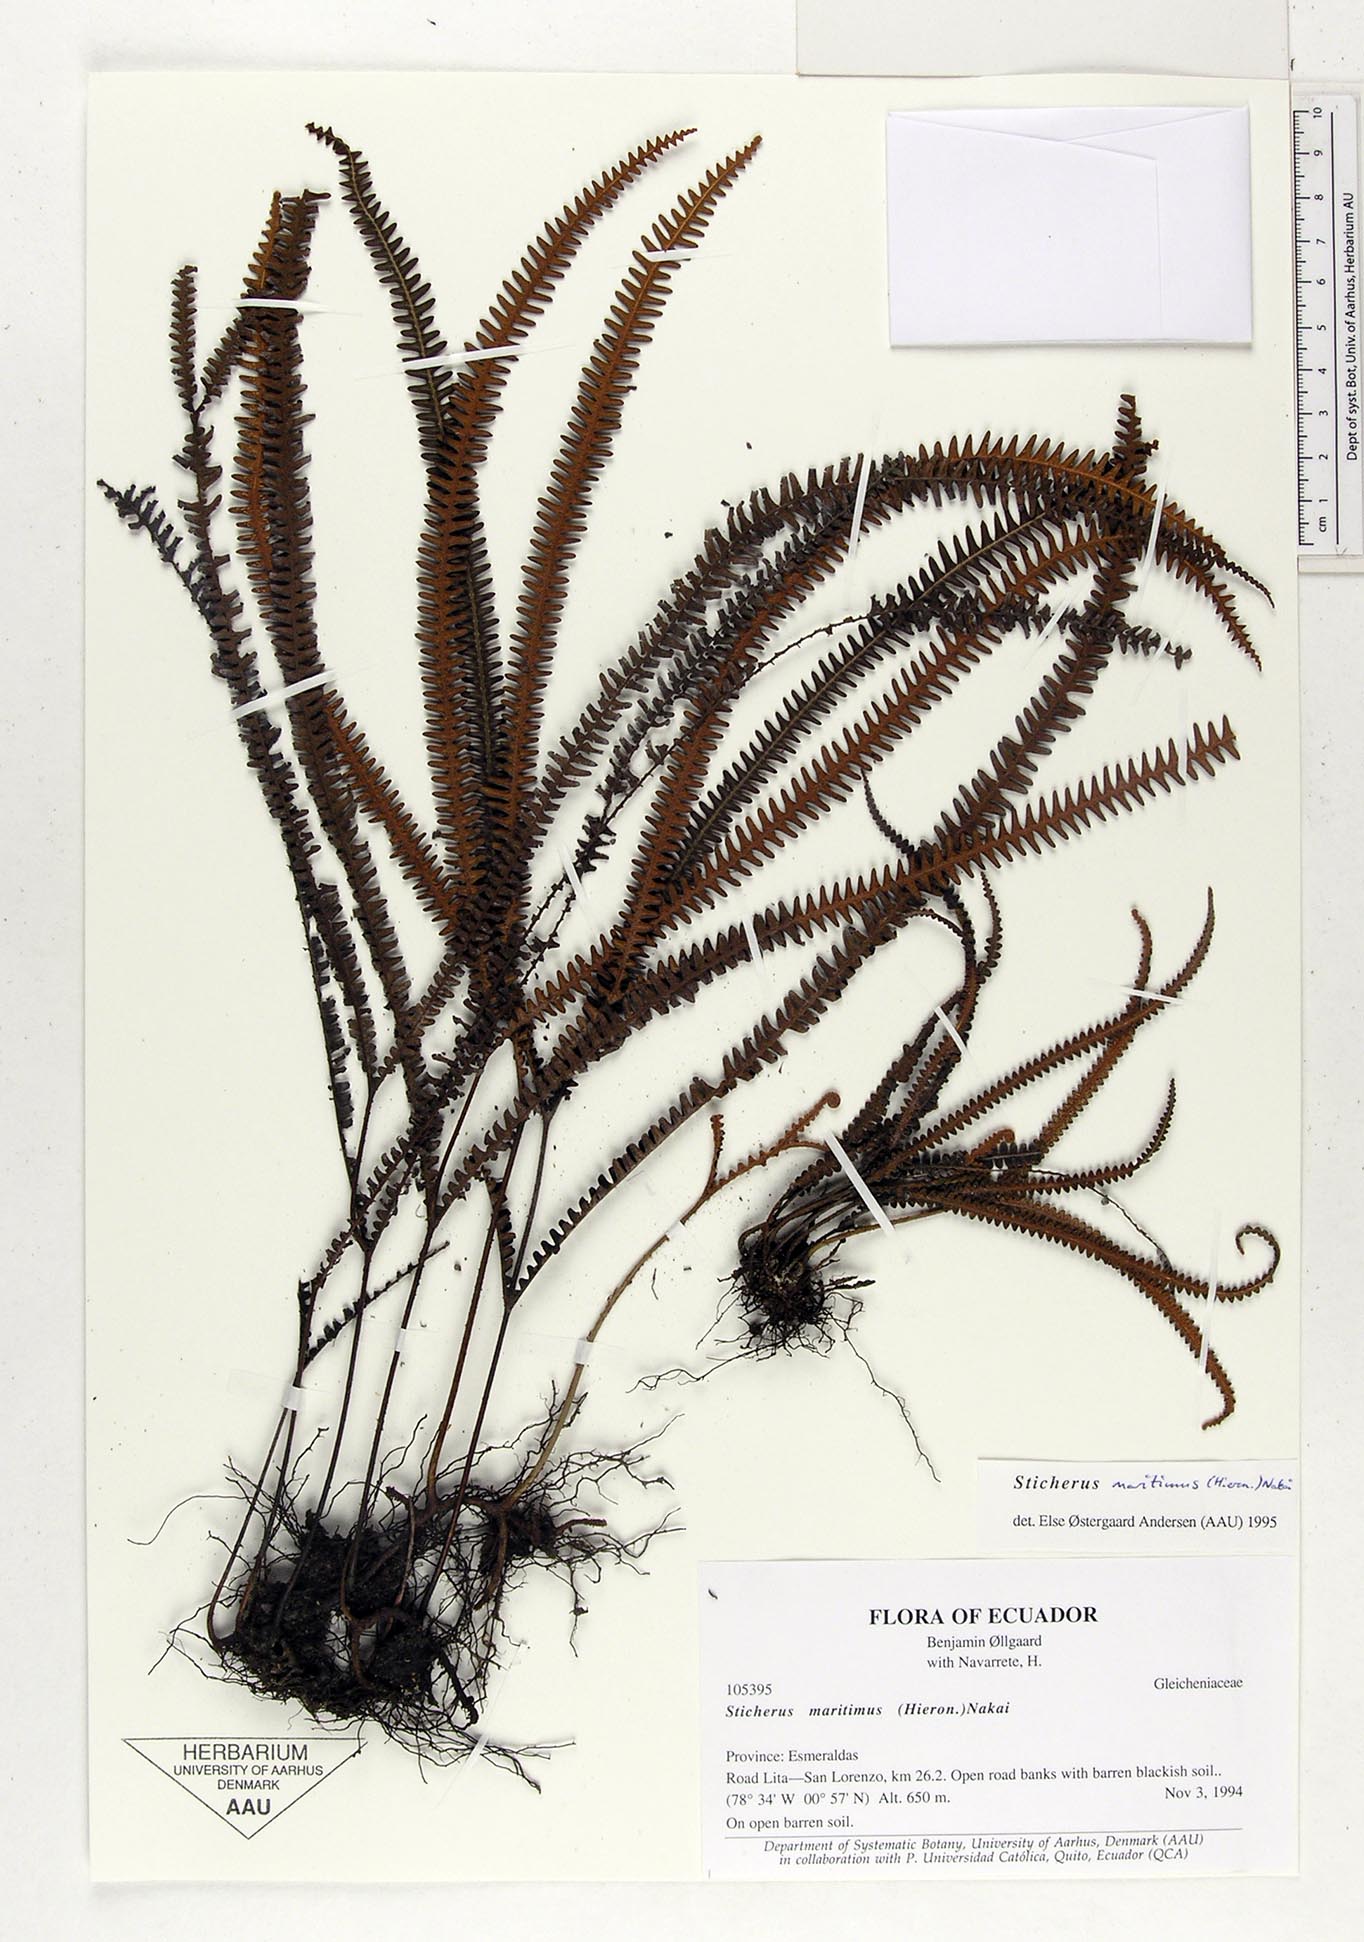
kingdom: Plantae
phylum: Tracheophyta
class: Polypodiopsida
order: Gleicheniales
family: Gleicheniaceae
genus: Sticherus
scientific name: Sticherus maritimus
